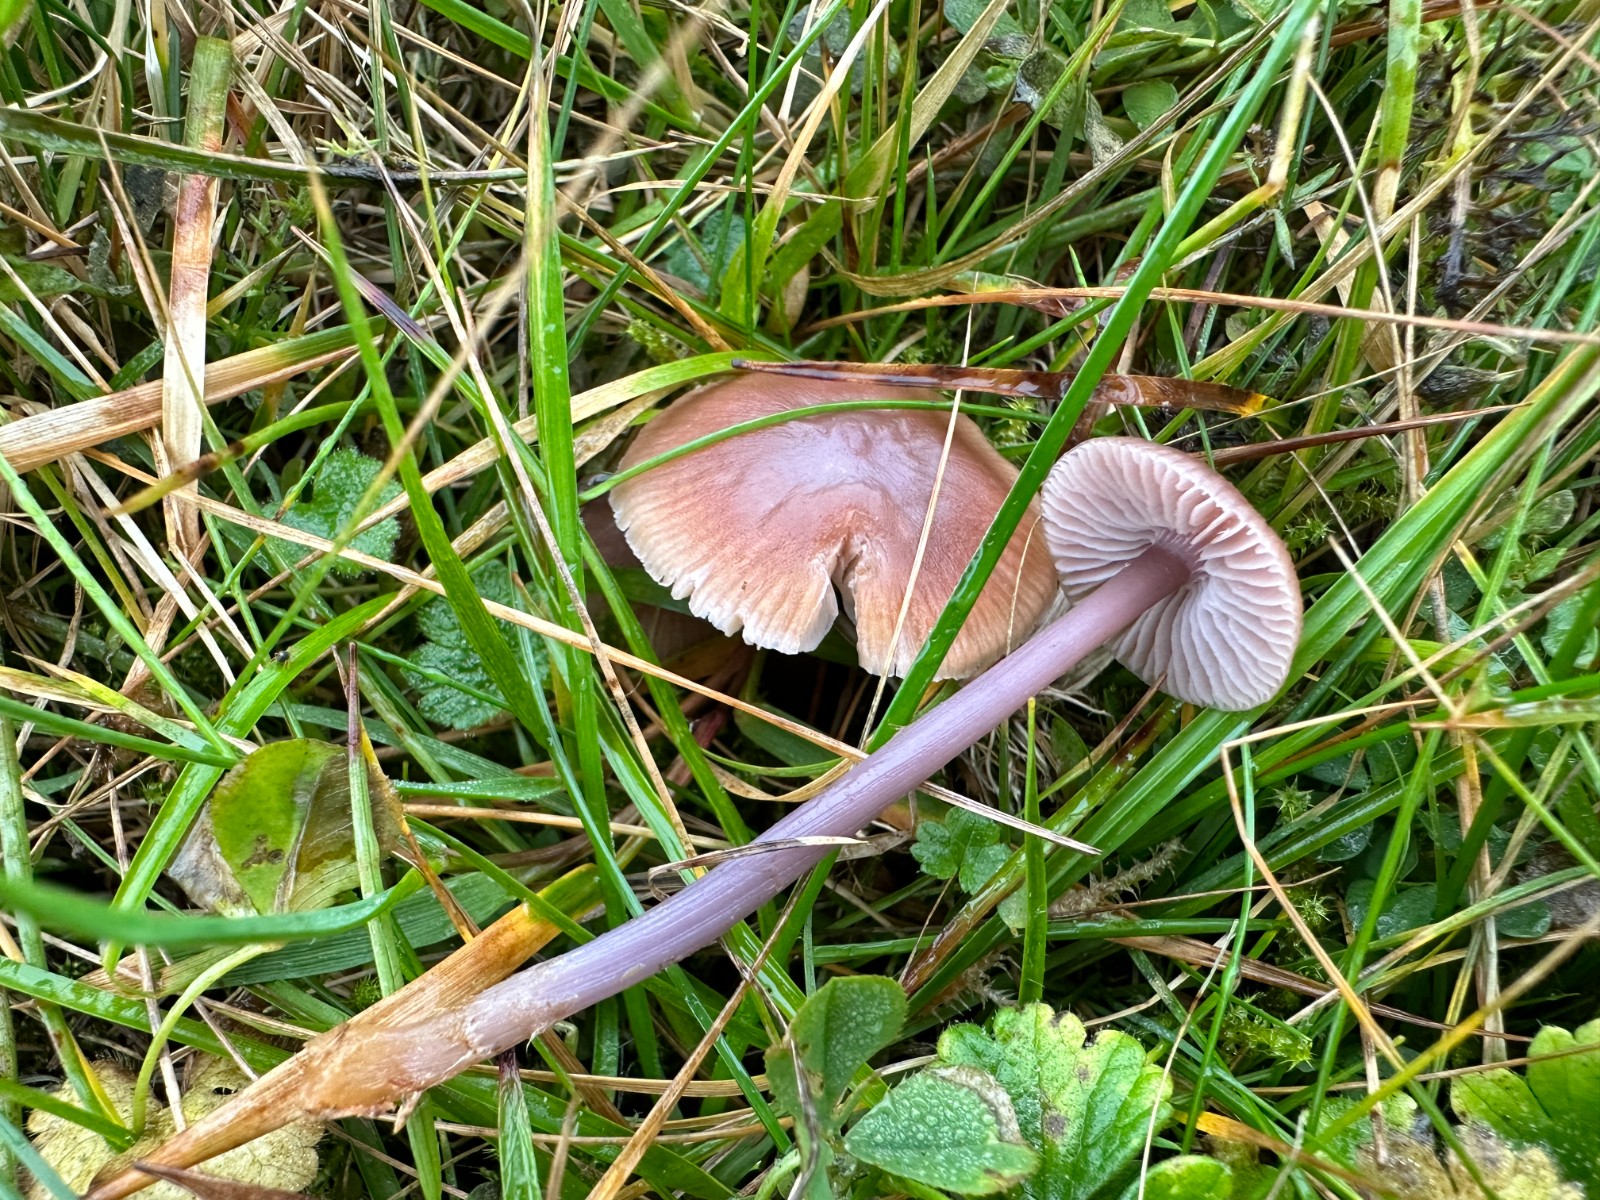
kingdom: Fungi
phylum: Basidiomycota
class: Agaricomycetes
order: Agaricales
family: Mycenaceae
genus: Mycena
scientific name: Mycena luteovariegata
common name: lillagul huesvamp
